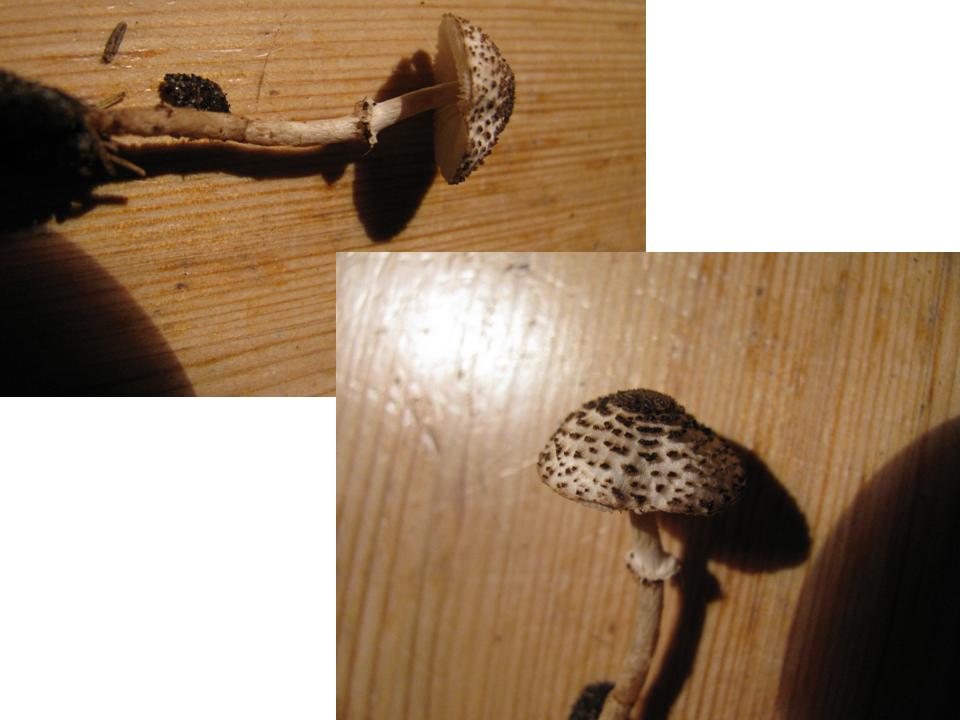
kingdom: Fungi
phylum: Basidiomycota
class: Agaricomycetes
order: Agaricales
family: Agaricaceae
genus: Lepiota
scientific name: Lepiota felina
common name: sortskællet parasolhat
